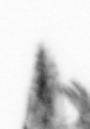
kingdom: Animalia
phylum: Arthropoda
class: Copepoda
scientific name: Copepoda
